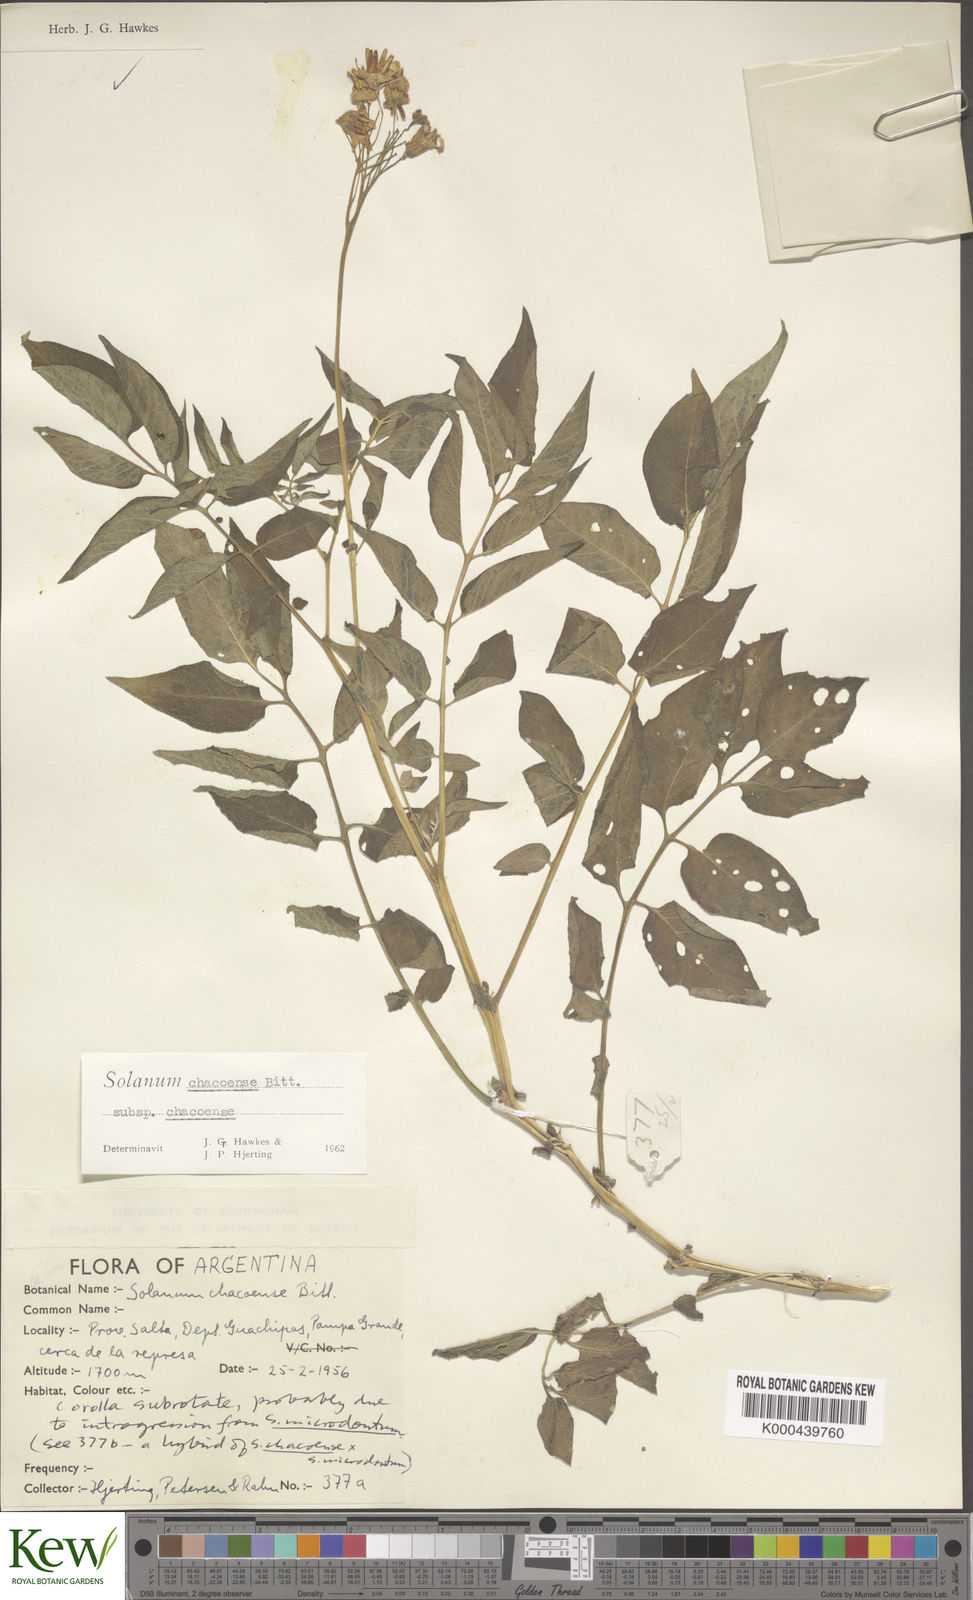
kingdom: Plantae
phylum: Tracheophyta
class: Magnoliopsida
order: Solanales
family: Solanaceae
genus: Solanum
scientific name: Solanum chacoense
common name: Chaco potato
